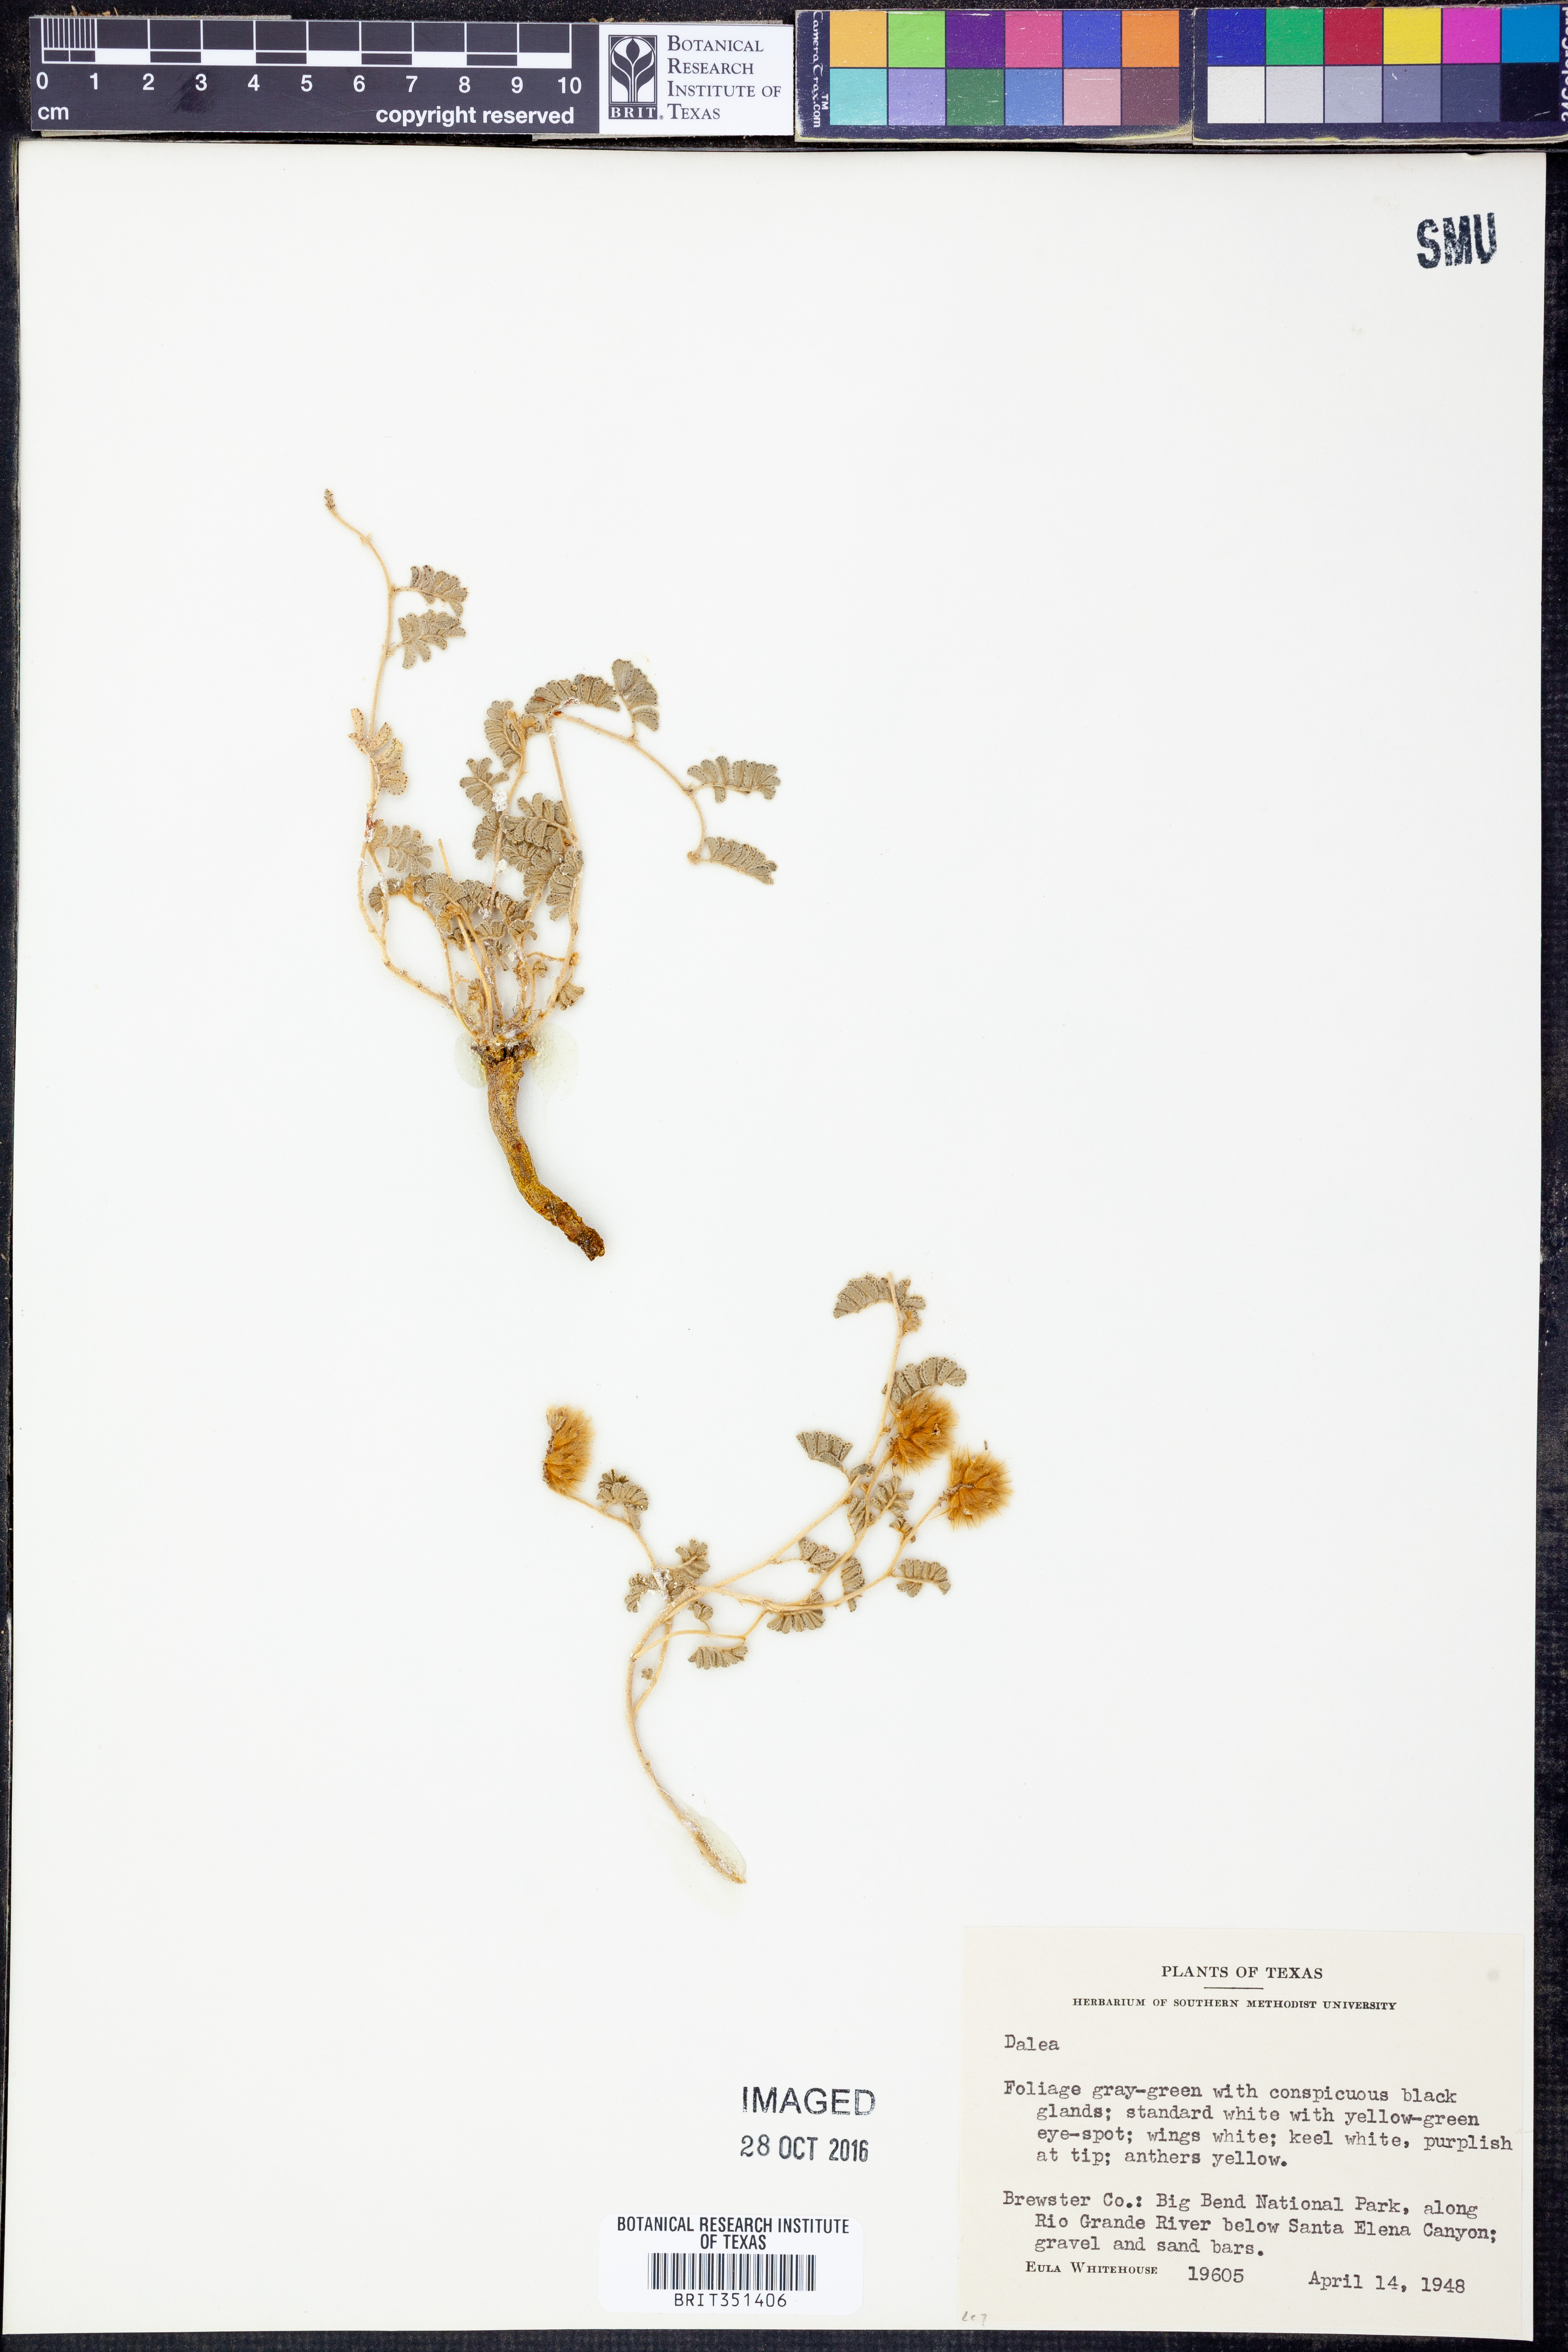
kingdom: Plantae
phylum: Tracheophyta
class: Magnoliopsida
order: Fabales
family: Fabaceae
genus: Dalea
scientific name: Dalea
